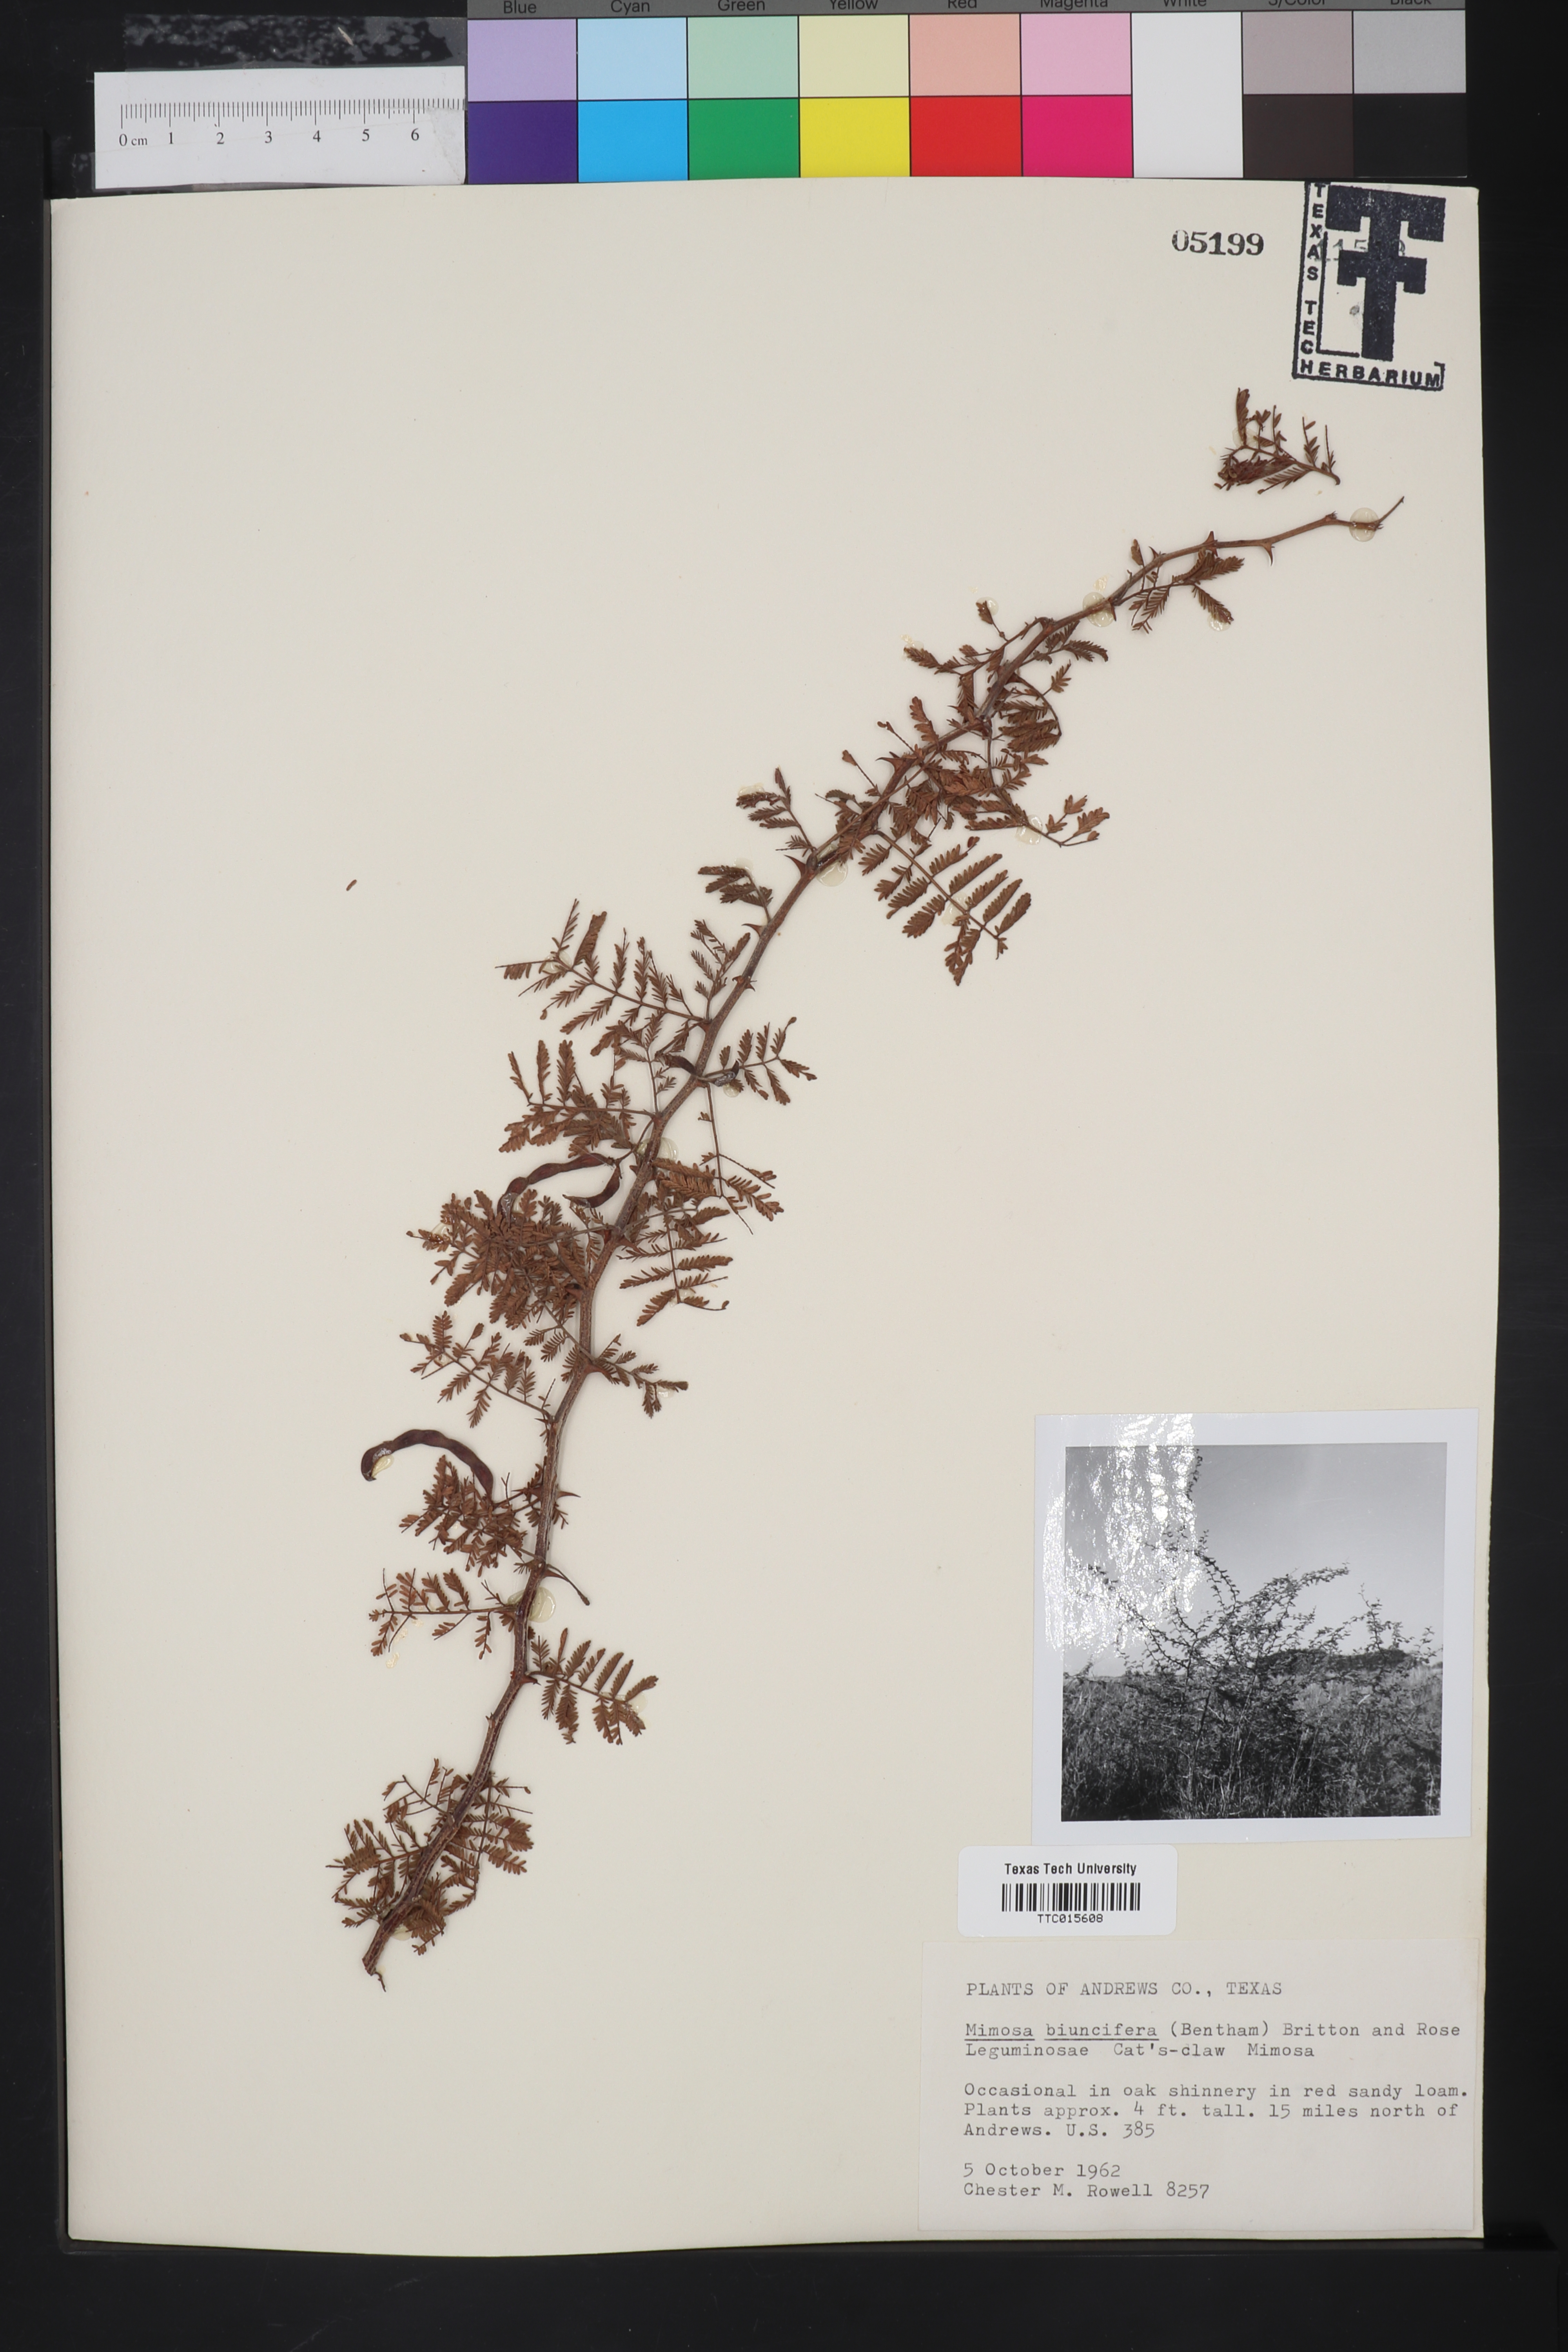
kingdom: Plantae
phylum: Tracheophyta
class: Magnoliopsida
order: Fabales
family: Fabaceae
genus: Mimosa
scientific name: Mimosa biuncifera
